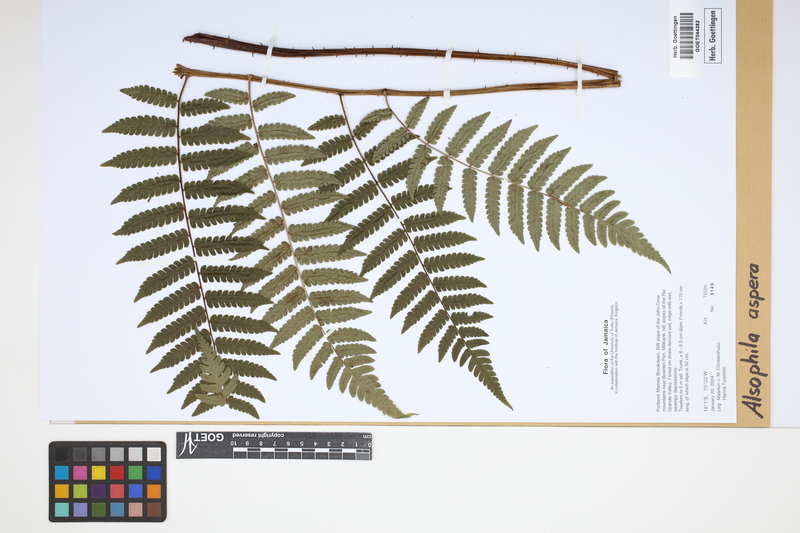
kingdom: Plantae
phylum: Tracheophyta
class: Polypodiopsida
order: Cyatheales
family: Cyatheaceae
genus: Cyathea
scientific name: Cyathea aspera
